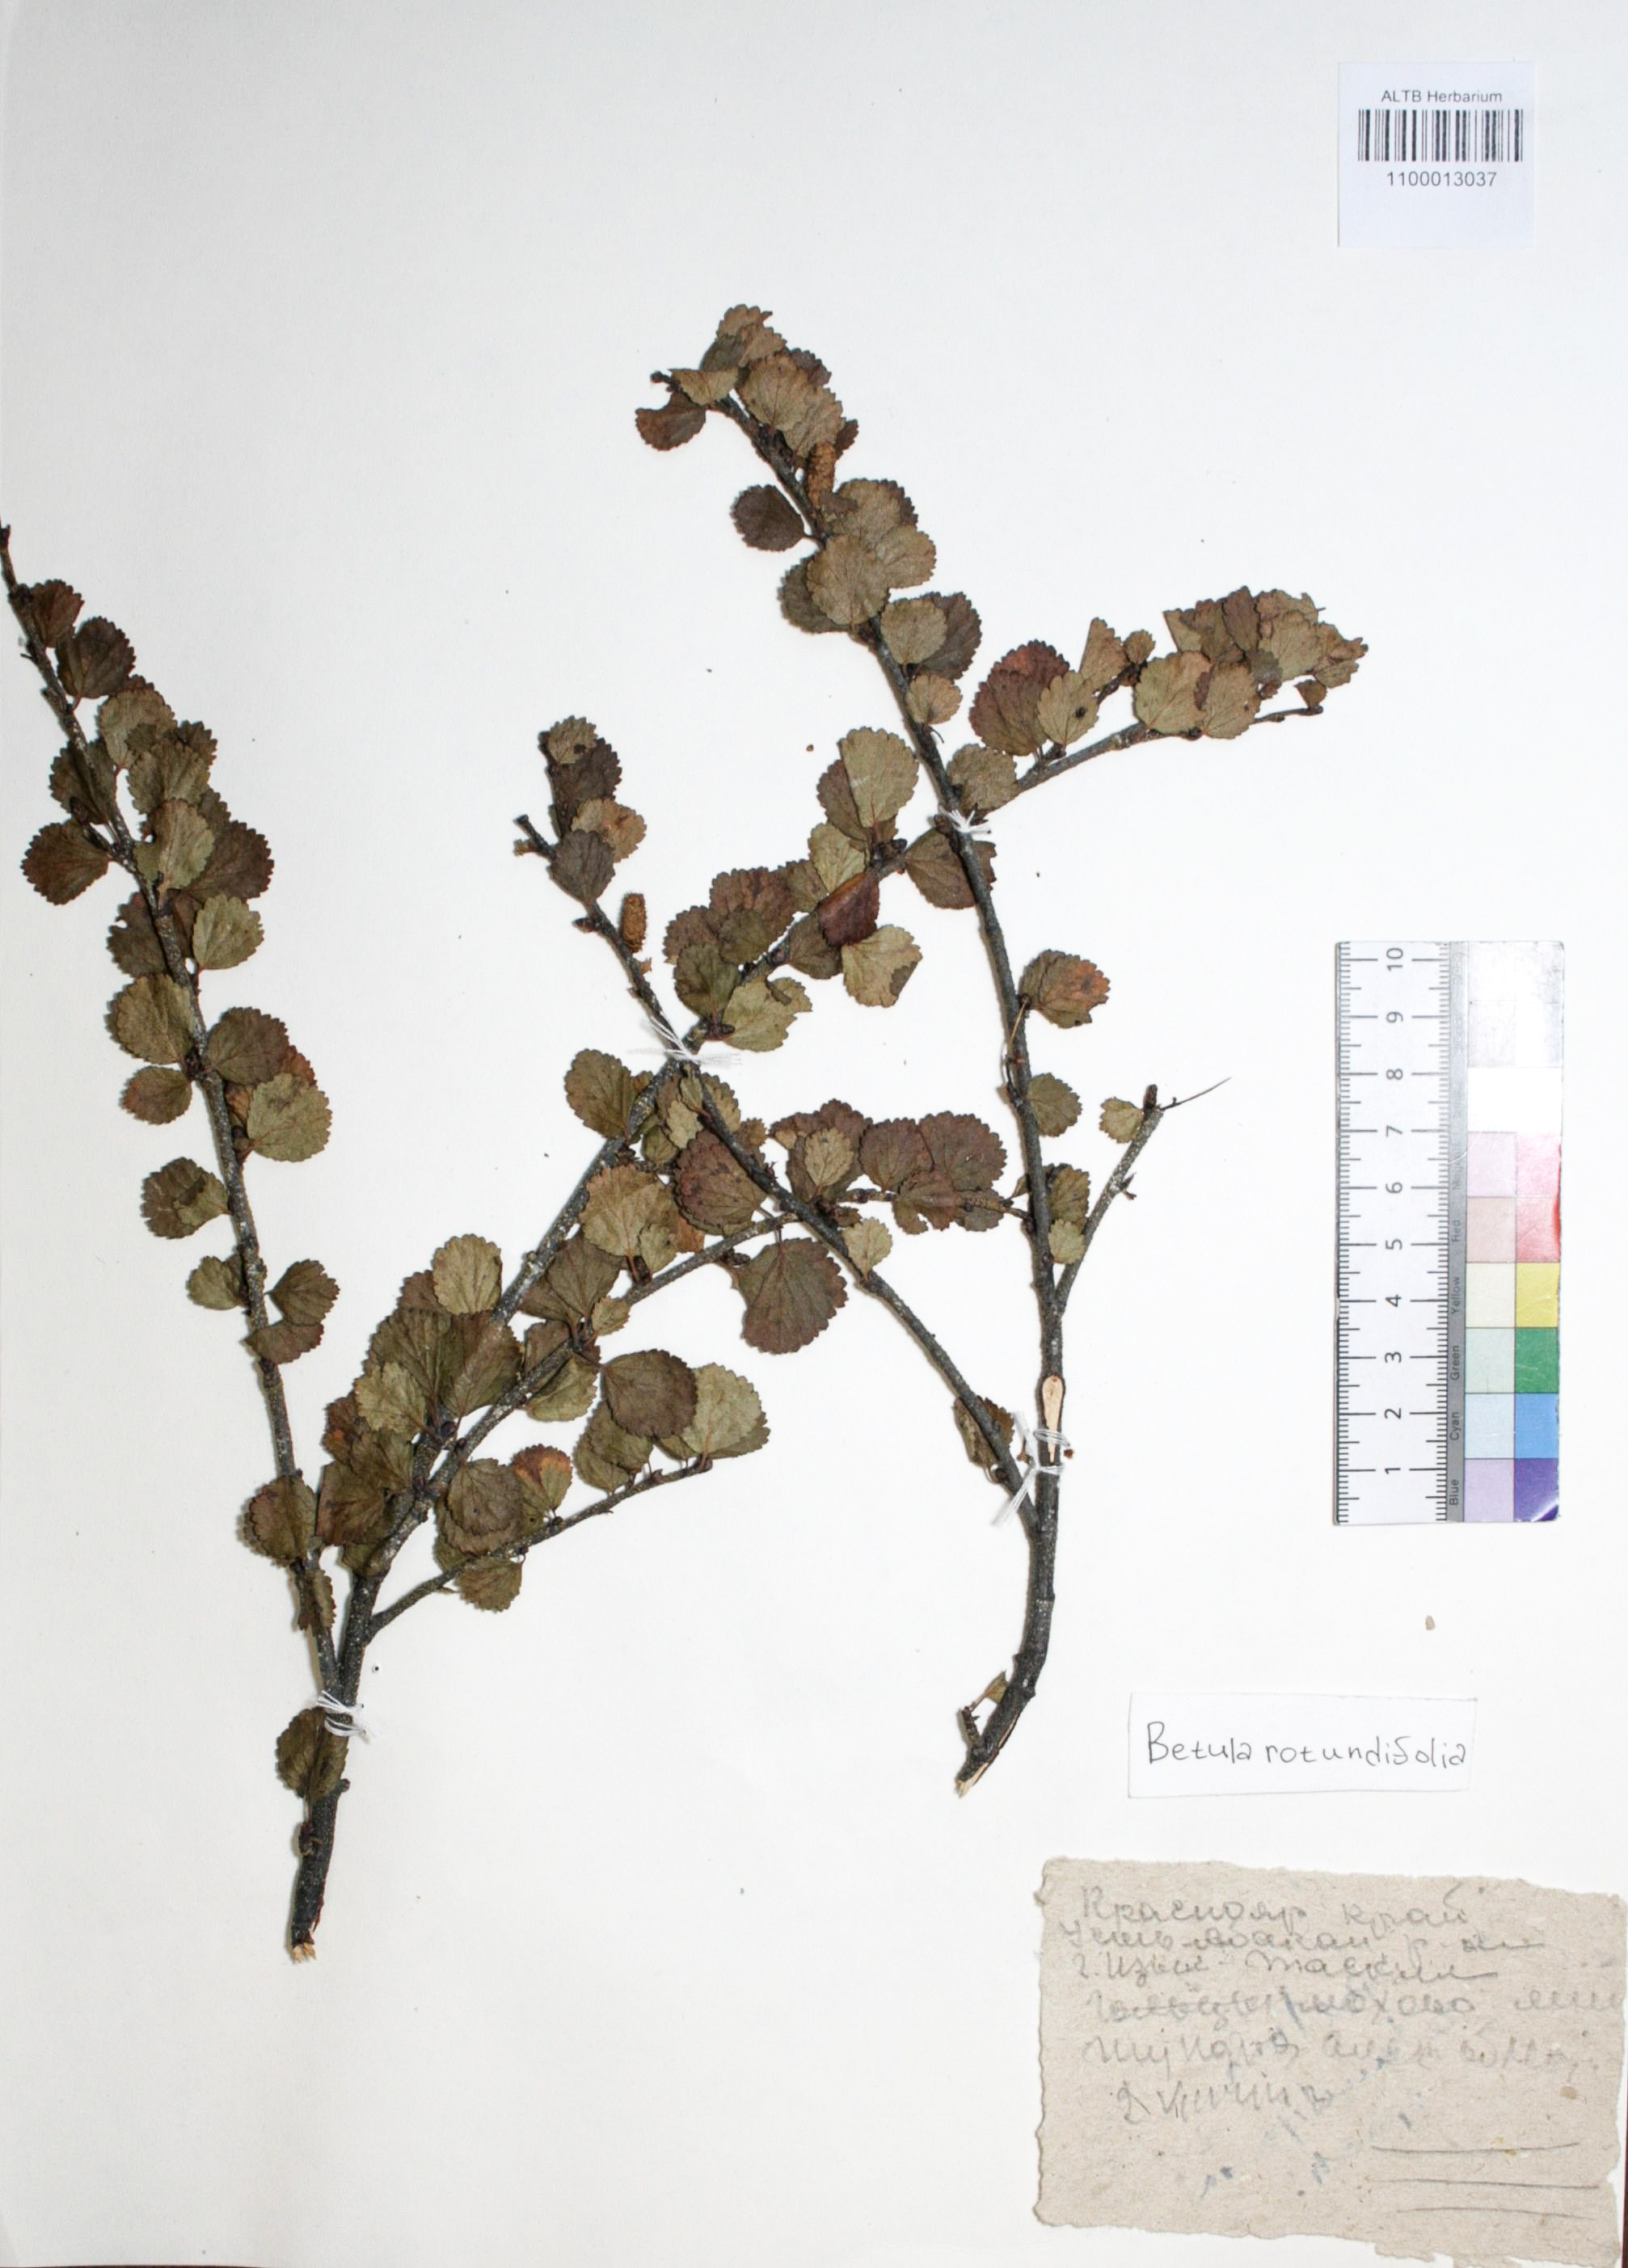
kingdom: Plantae
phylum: Tracheophyta
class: Magnoliopsida
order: Fagales
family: Betulaceae
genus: Betula
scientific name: Betula glandulosa
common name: Dwarf birch
